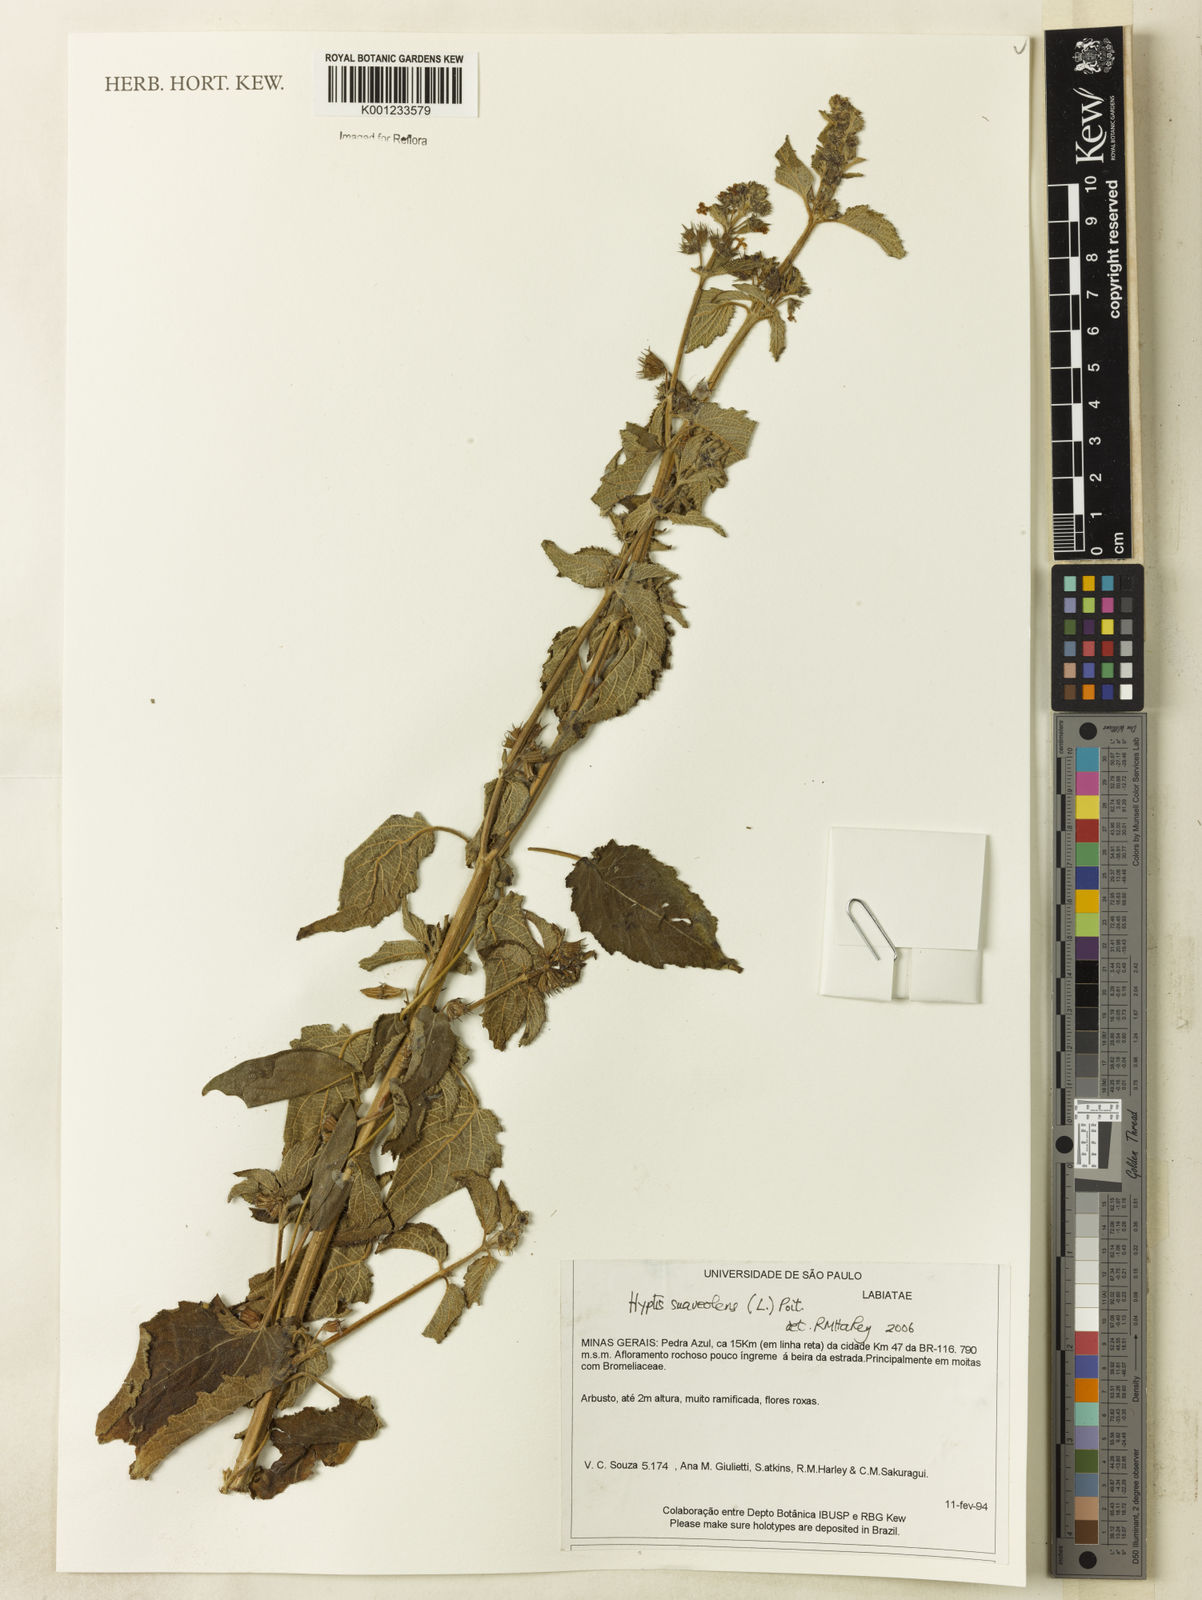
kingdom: Plantae
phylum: Tracheophyta
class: Magnoliopsida
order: Lamiales
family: Lamiaceae
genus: Mesosphaerum
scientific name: Mesosphaerum suaveolens
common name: Pignut
